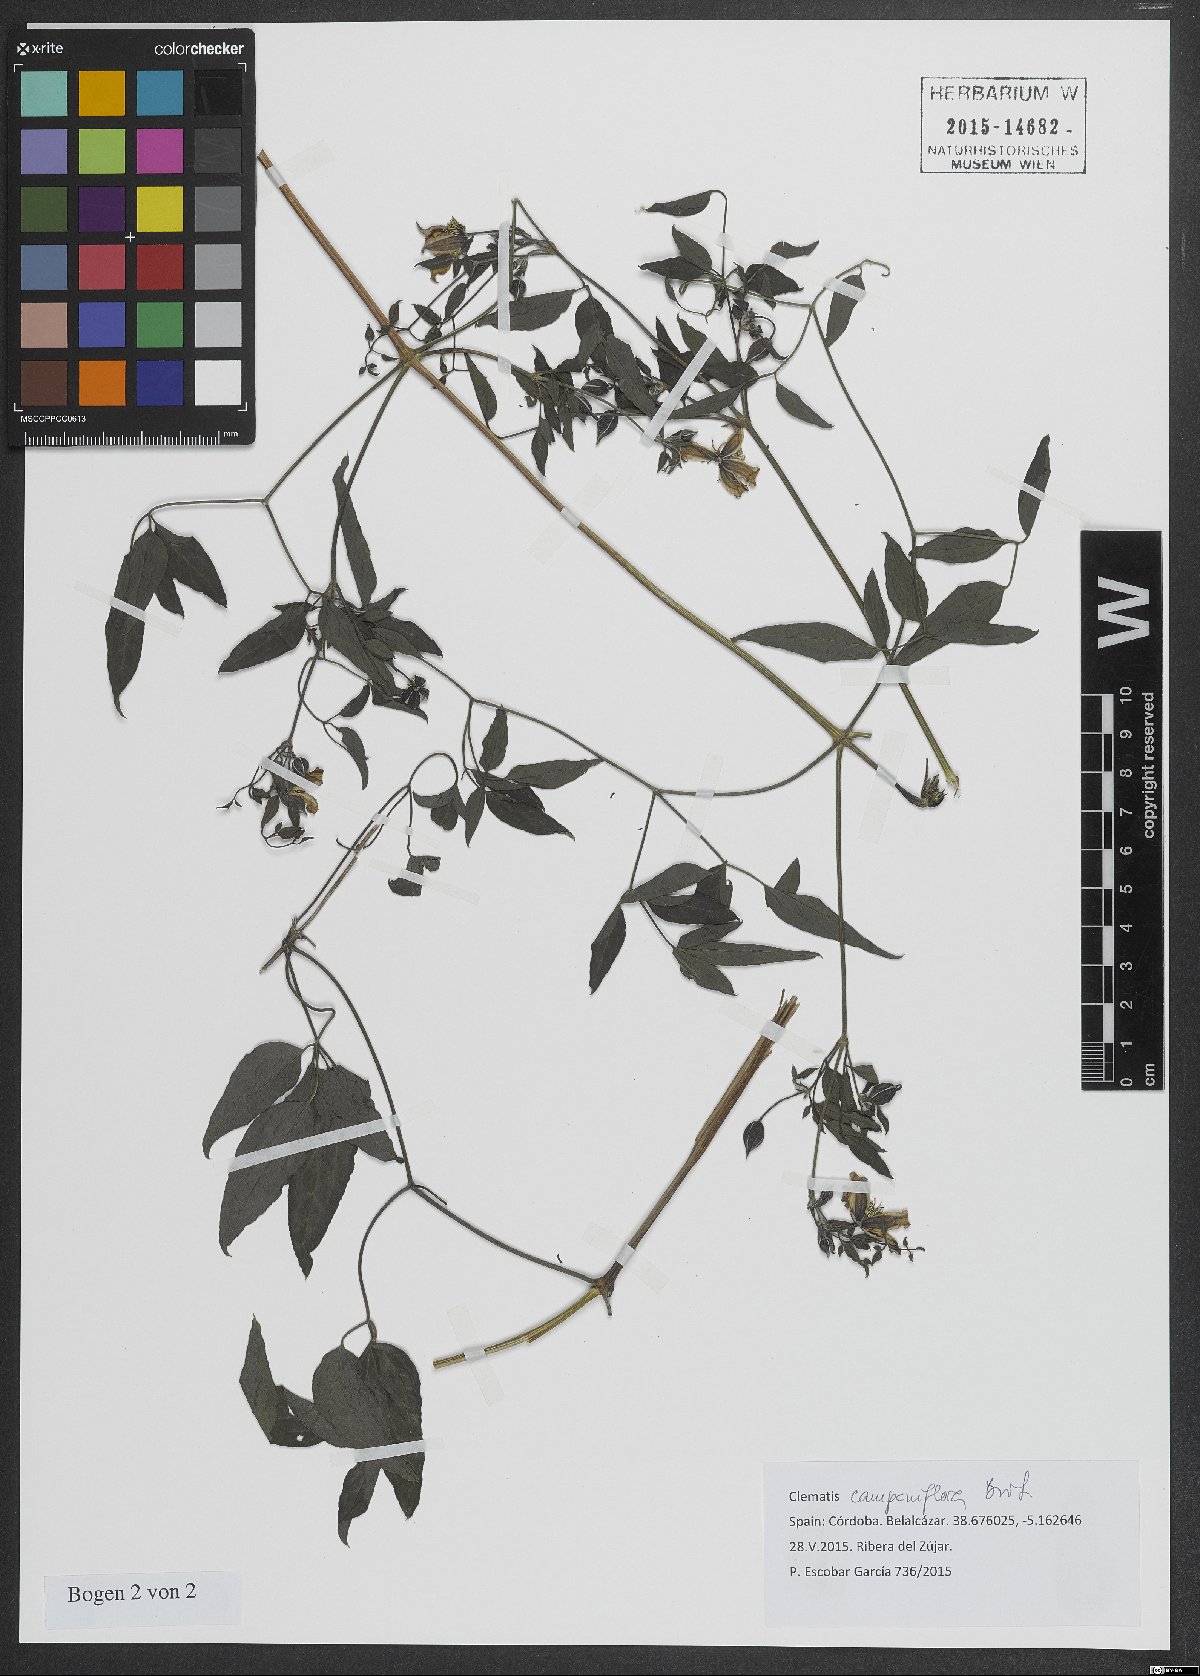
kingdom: Plantae
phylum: Tracheophyta
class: Magnoliopsida
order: Ranunculales
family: Ranunculaceae
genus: Clematis
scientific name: Clematis viticella
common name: Purple clematis
